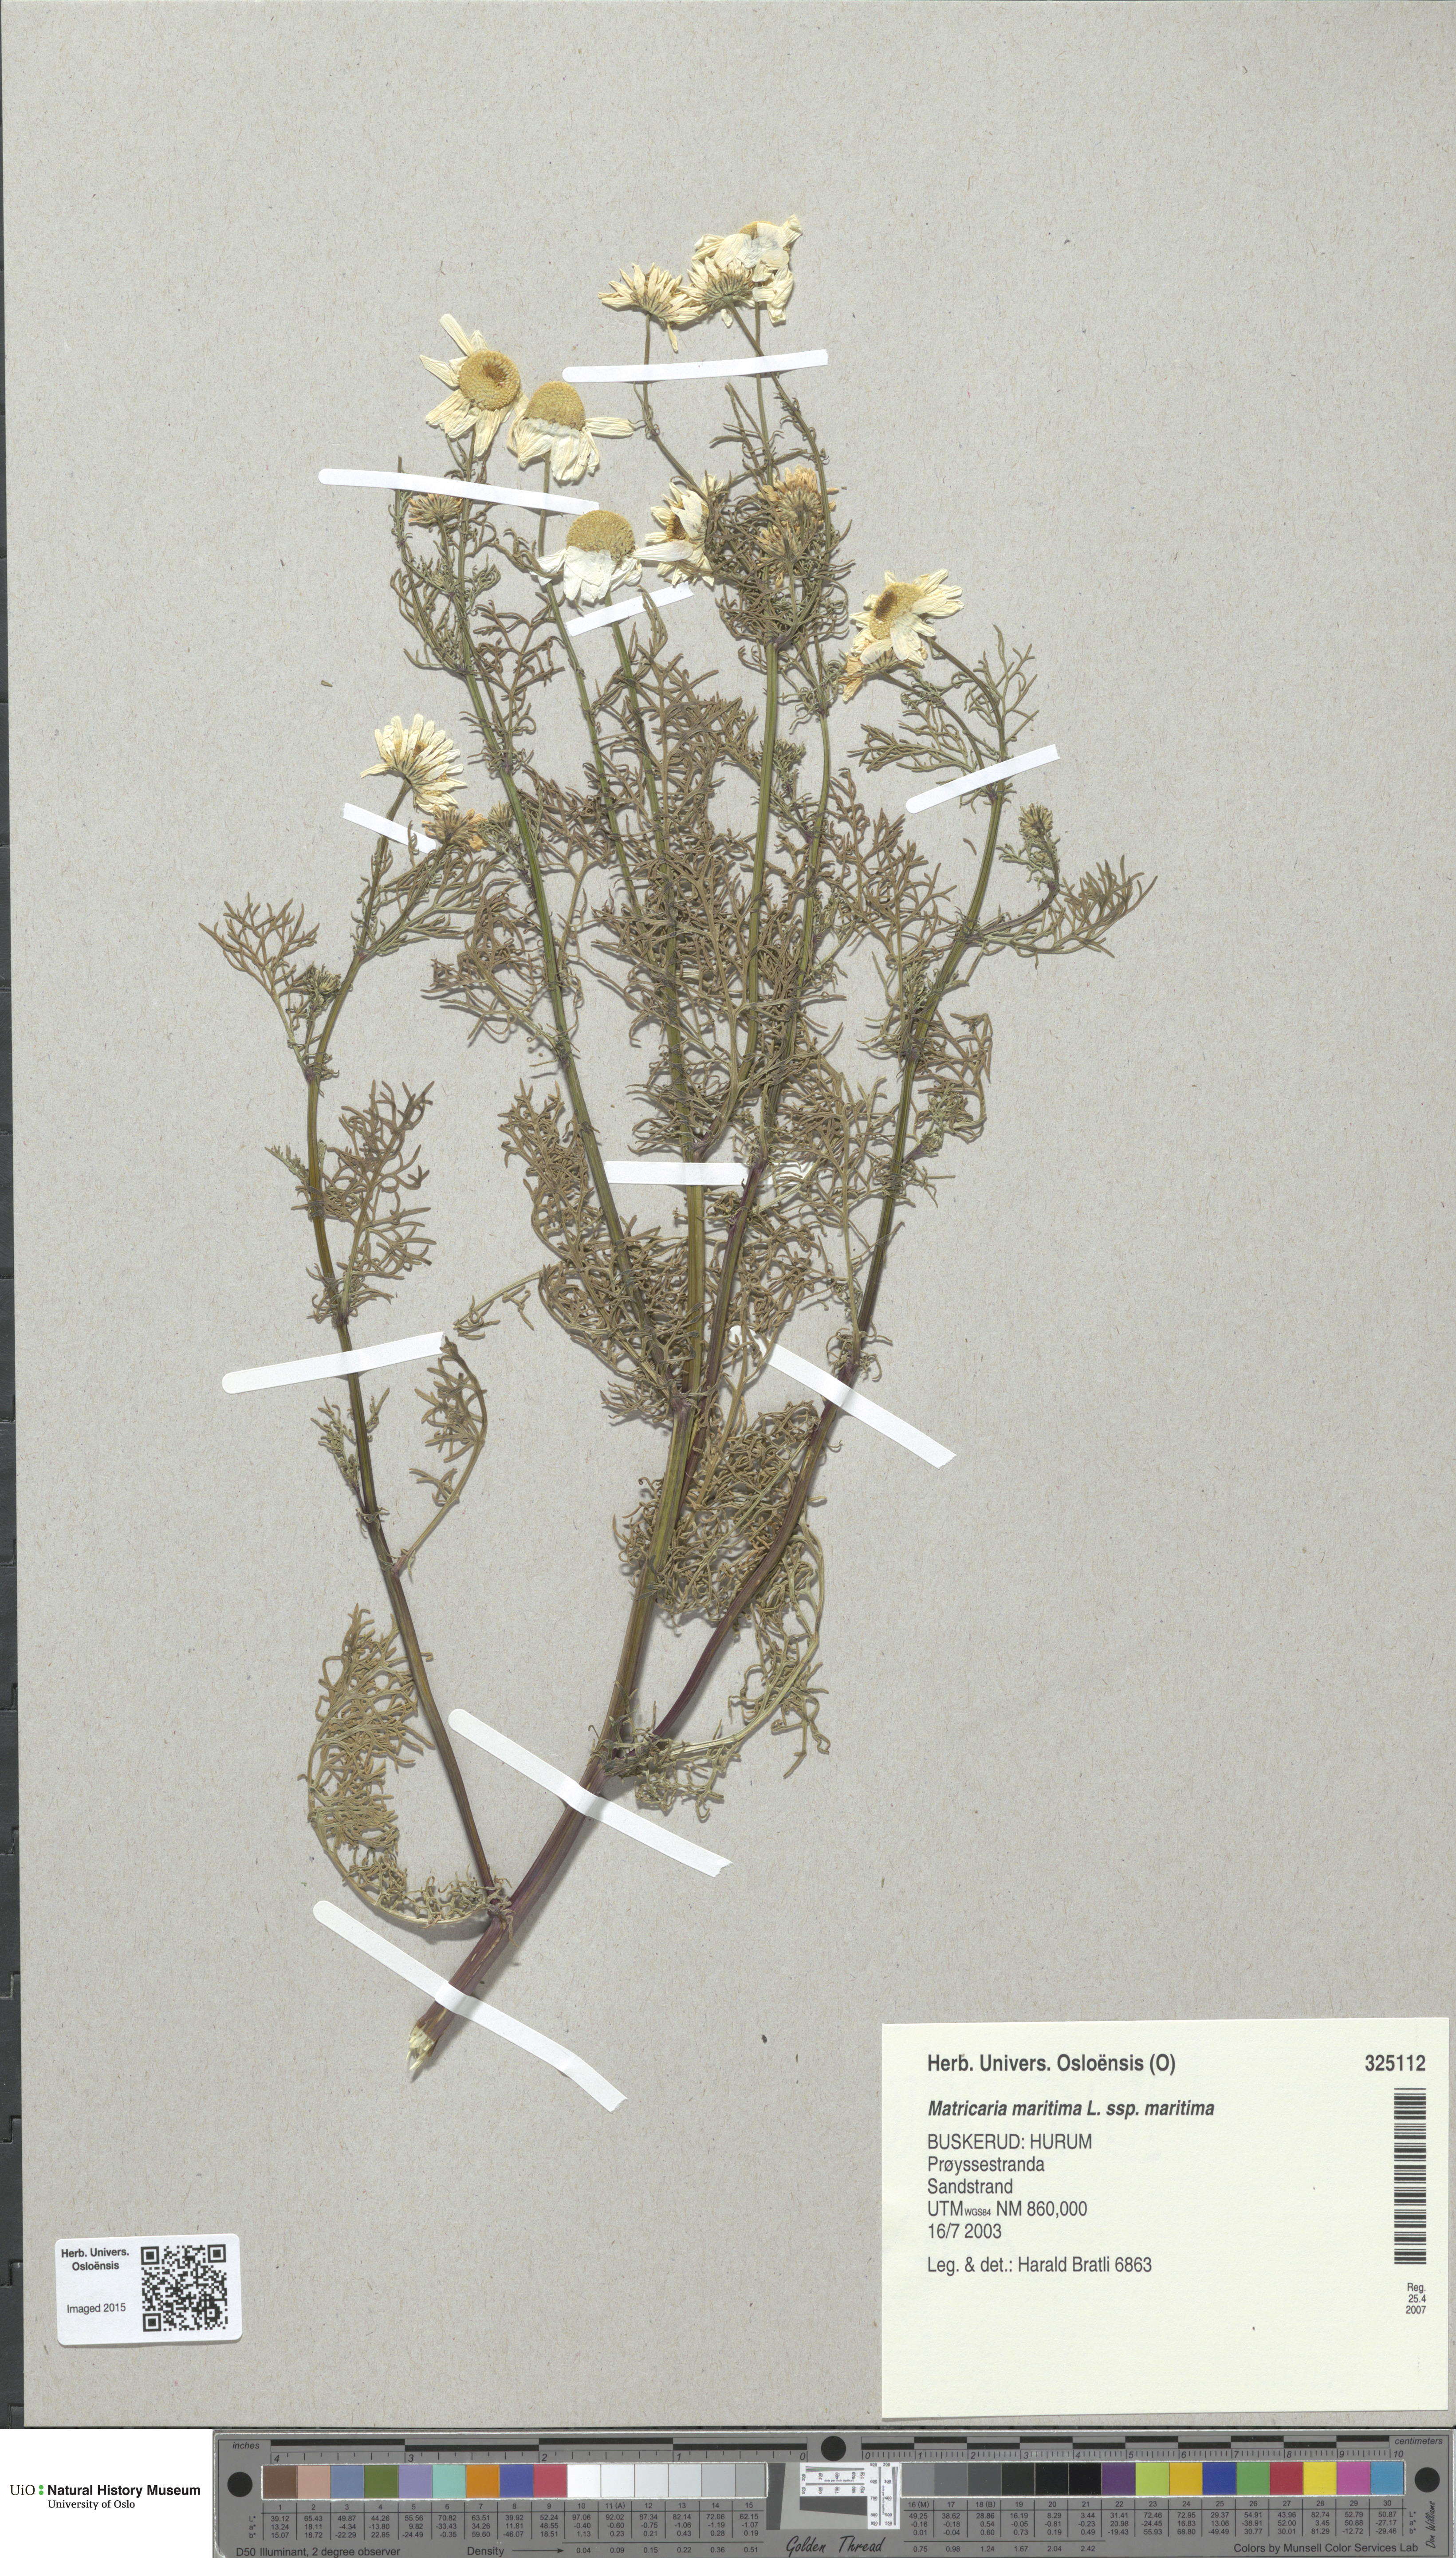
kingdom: Plantae
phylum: Tracheophyta
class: Magnoliopsida
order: Asterales
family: Asteraceae
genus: Tripleurospermum
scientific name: Tripleurospermum maritimum
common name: Sea mayweed
